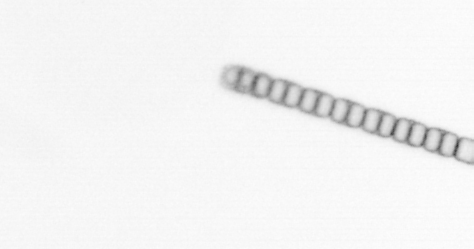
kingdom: Chromista
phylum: Ochrophyta
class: Bacillariophyceae
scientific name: Bacillariophyceae
